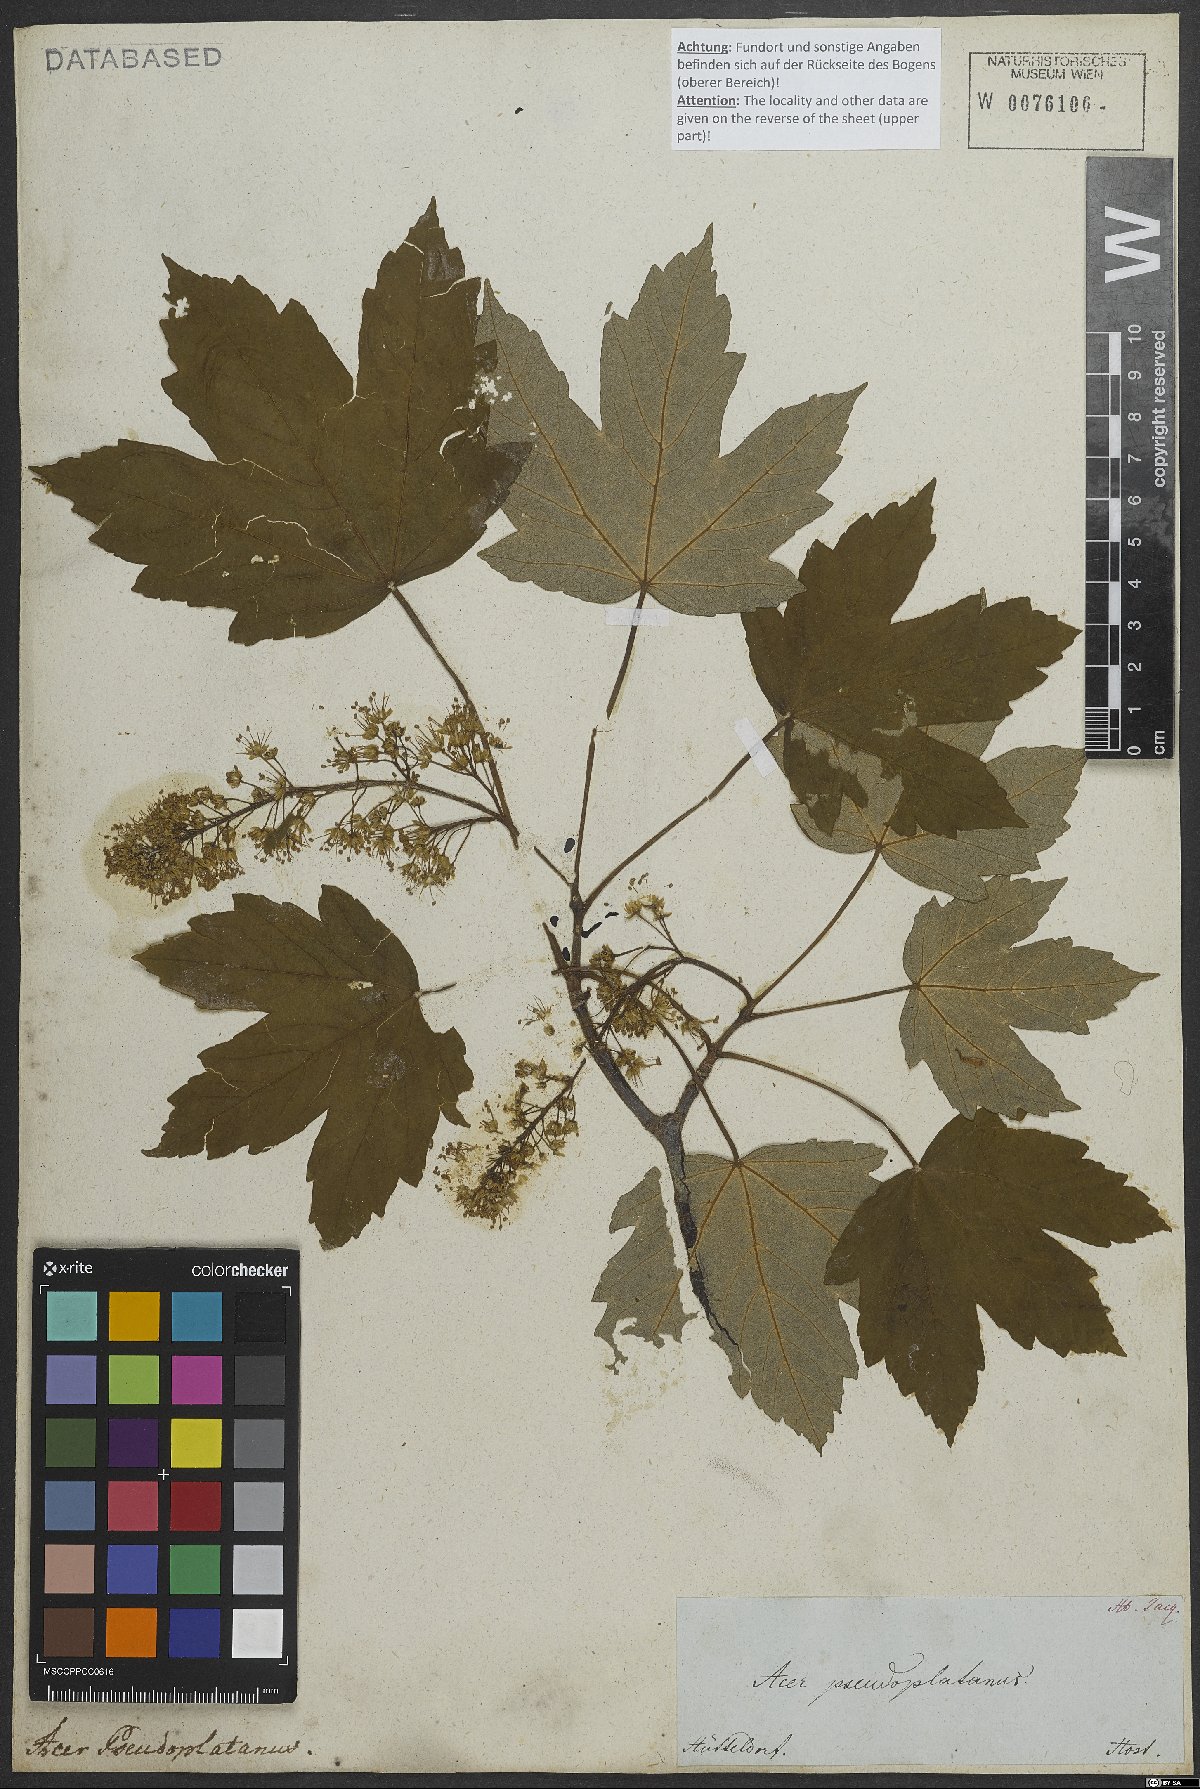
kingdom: Plantae
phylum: Tracheophyta
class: Magnoliopsida
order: Sapindales
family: Sapindaceae
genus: Acer
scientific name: Acer pseudoplatanus
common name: Sycamore
